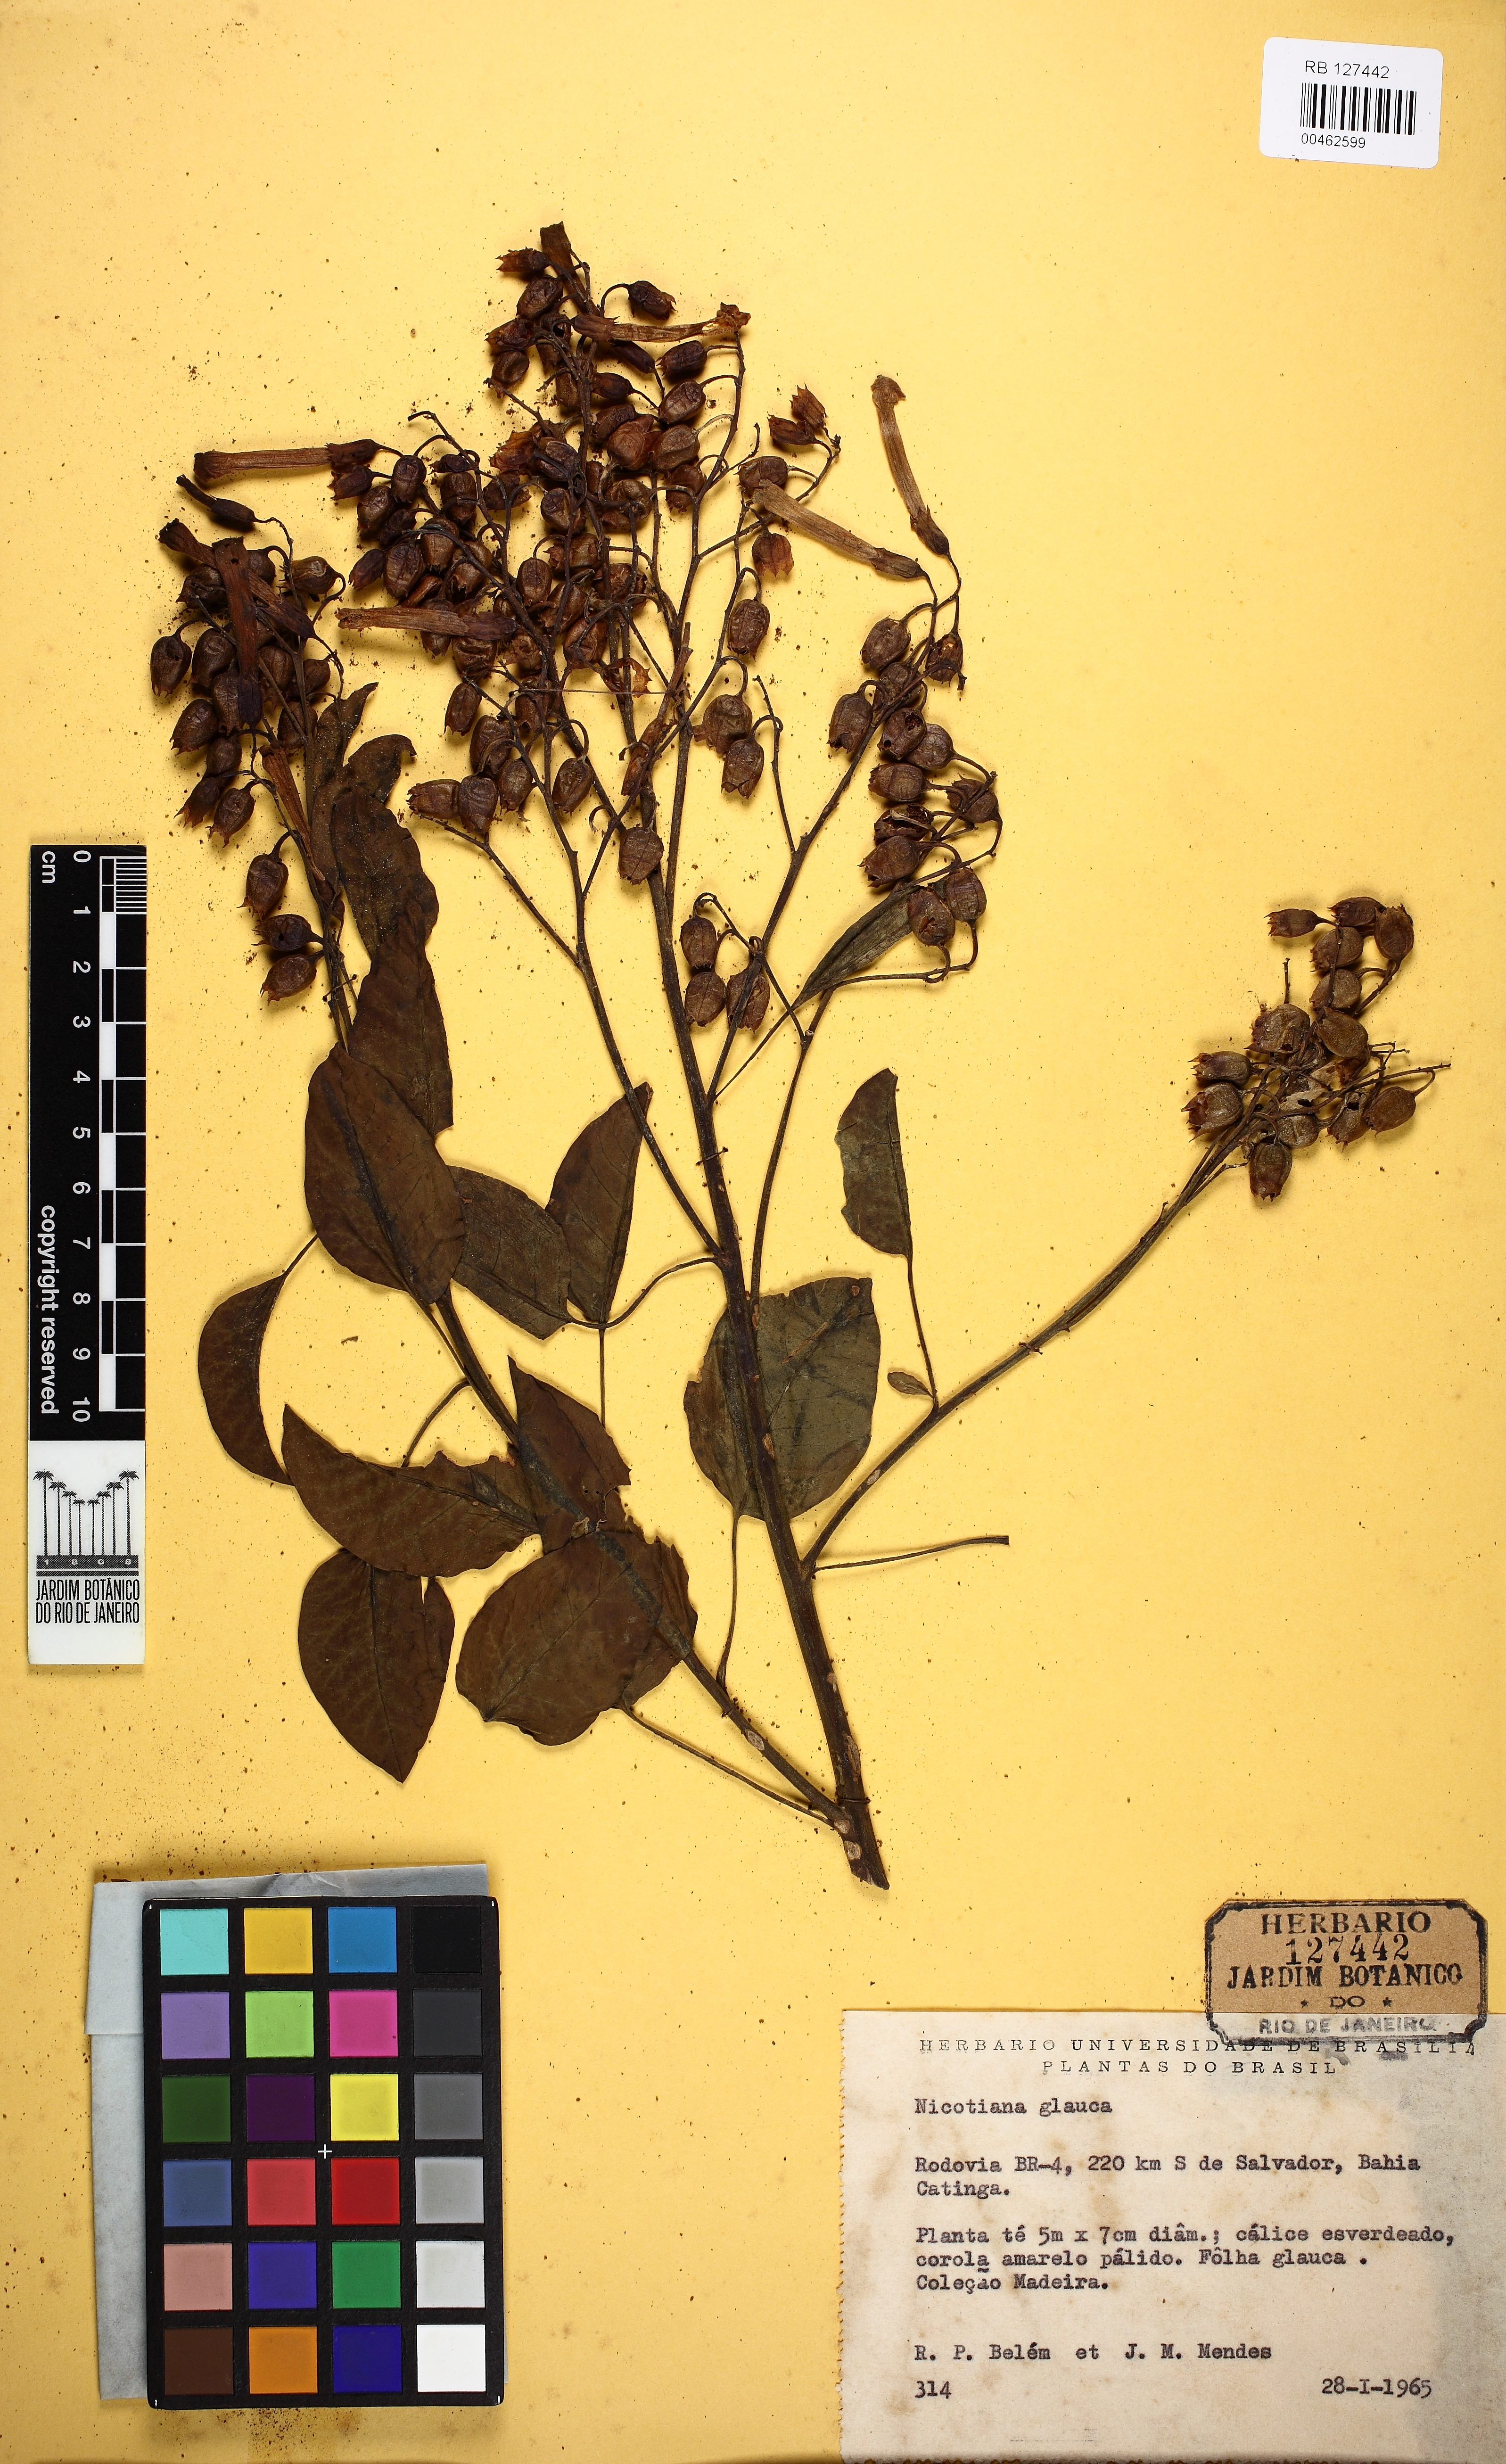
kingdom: Plantae
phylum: Tracheophyta
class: Magnoliopsida
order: Solanales
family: Solanaceae
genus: Nicotiana
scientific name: Nicotiana glauca
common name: Tree tobacco
